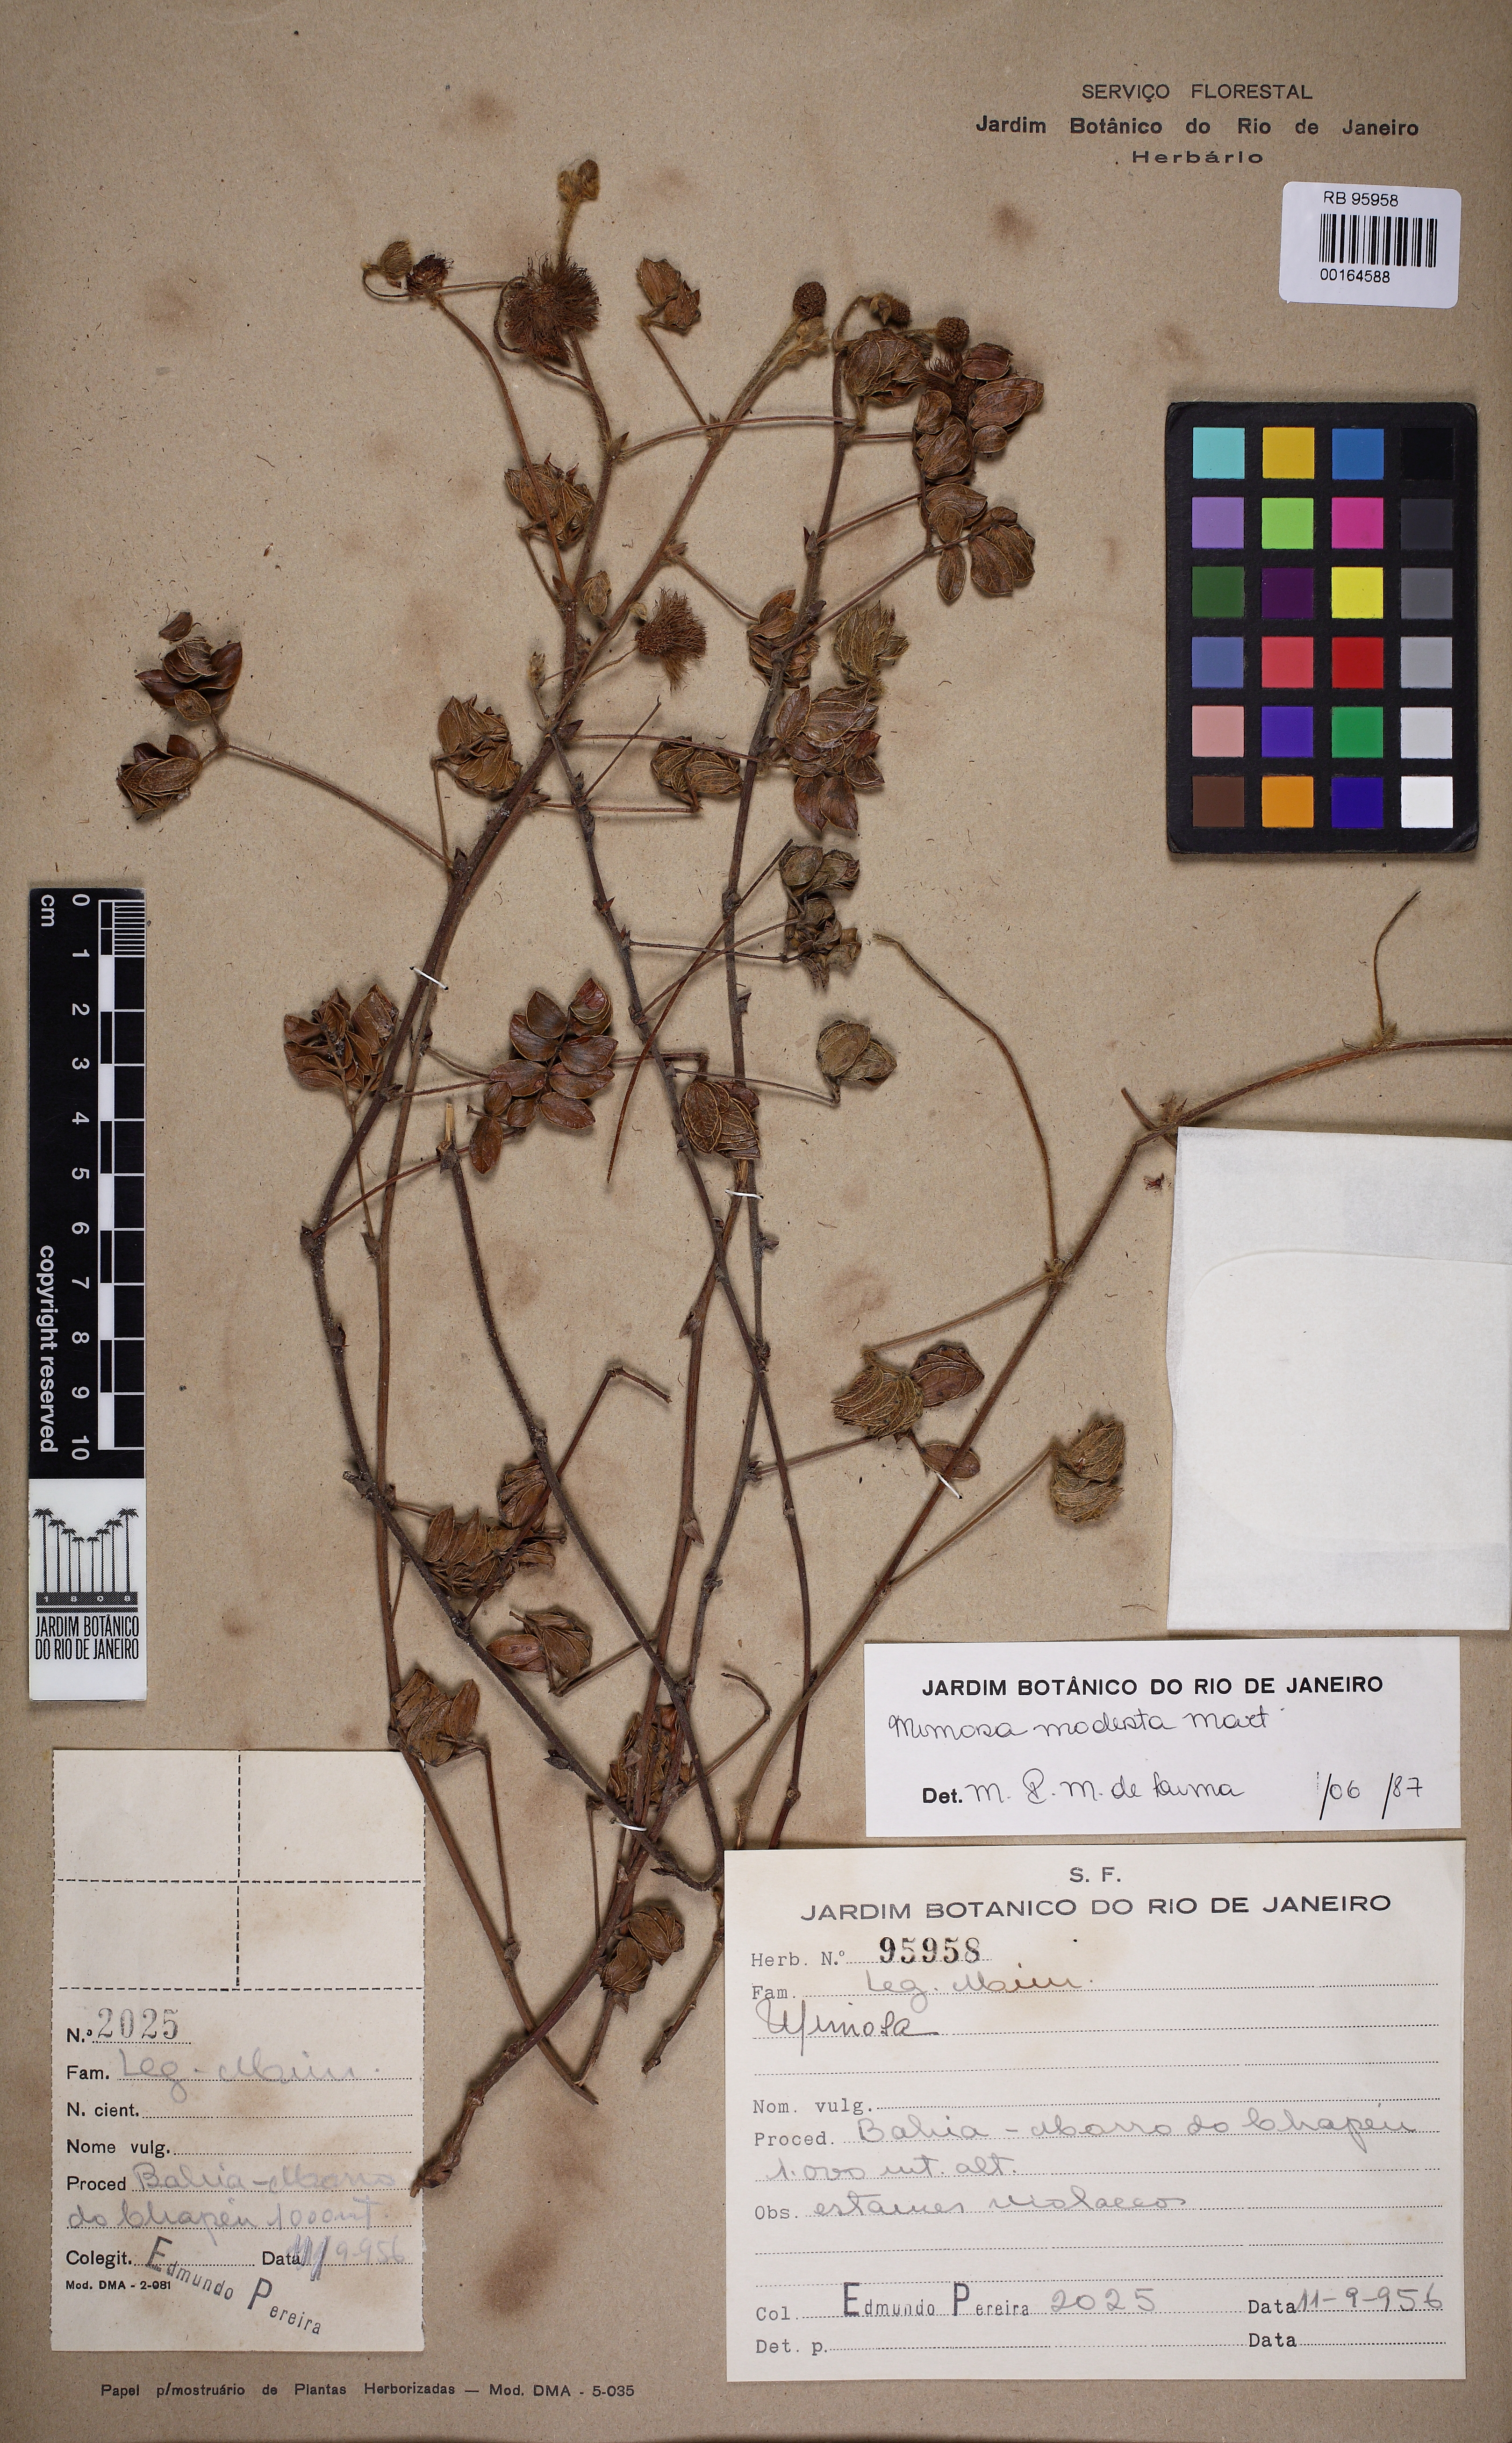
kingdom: Plantae
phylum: Tracheophyta
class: Magnoliopsida
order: Fabales
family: Fabaceae
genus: Mimosa
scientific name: Mimosa modesta
